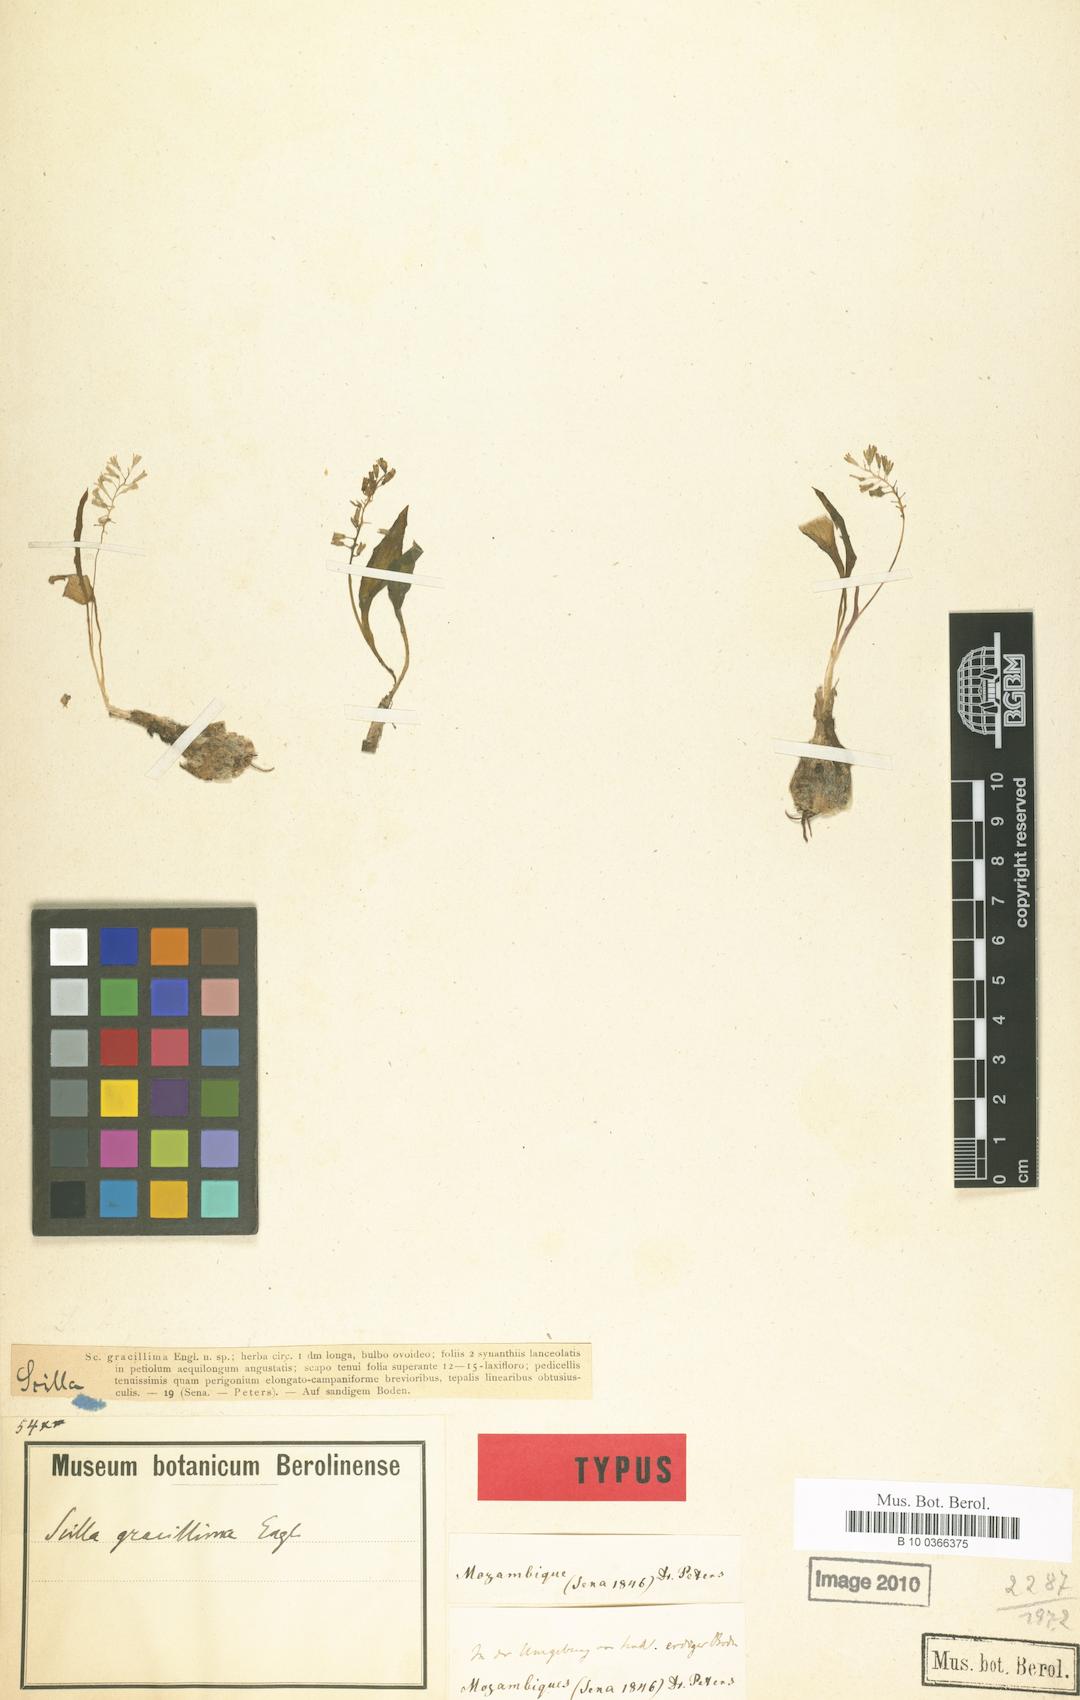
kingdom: Plantae
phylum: Tracheophyta
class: Liliopsida
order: Asparagales
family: Asparagaceae
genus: Scilla
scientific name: Scilla gracillima
